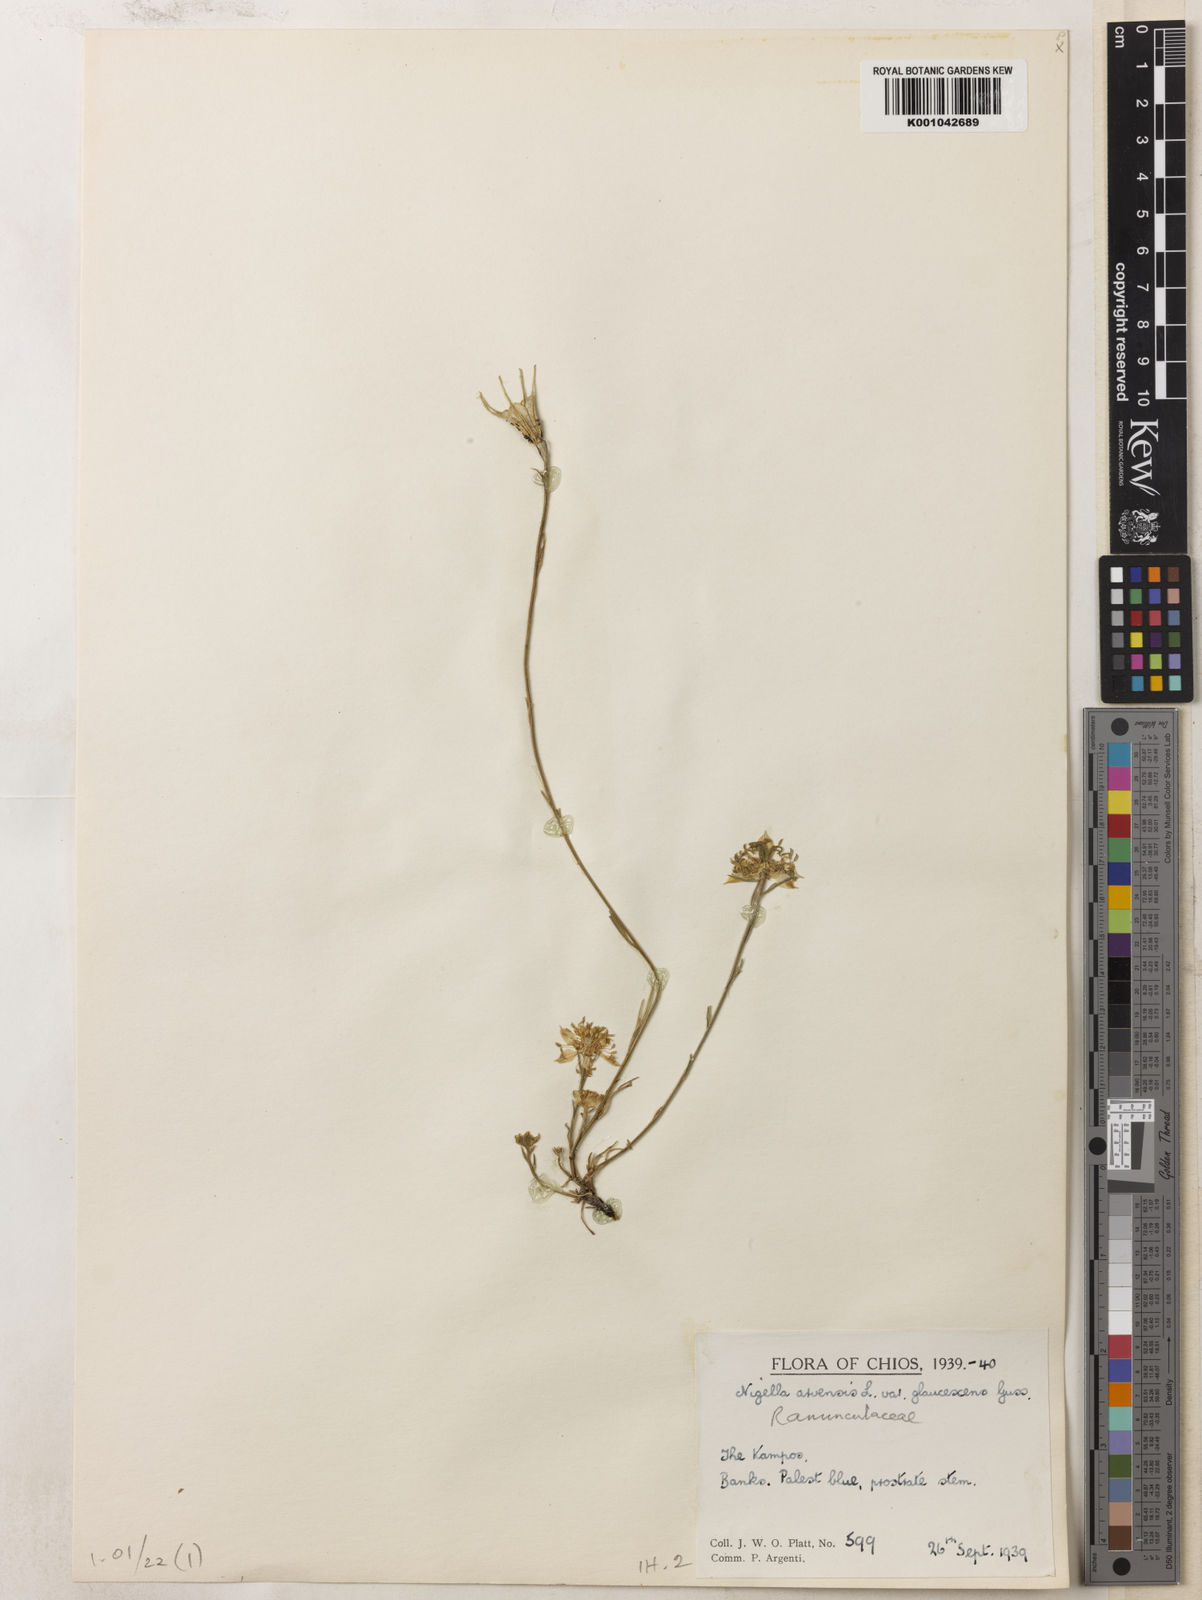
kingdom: Plantae
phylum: Tracheophyta
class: Magnoliopsida
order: Ranunculales
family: Ranunculaceae
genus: Nigella
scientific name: Nigella arvensis
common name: Wild fennel-flower
